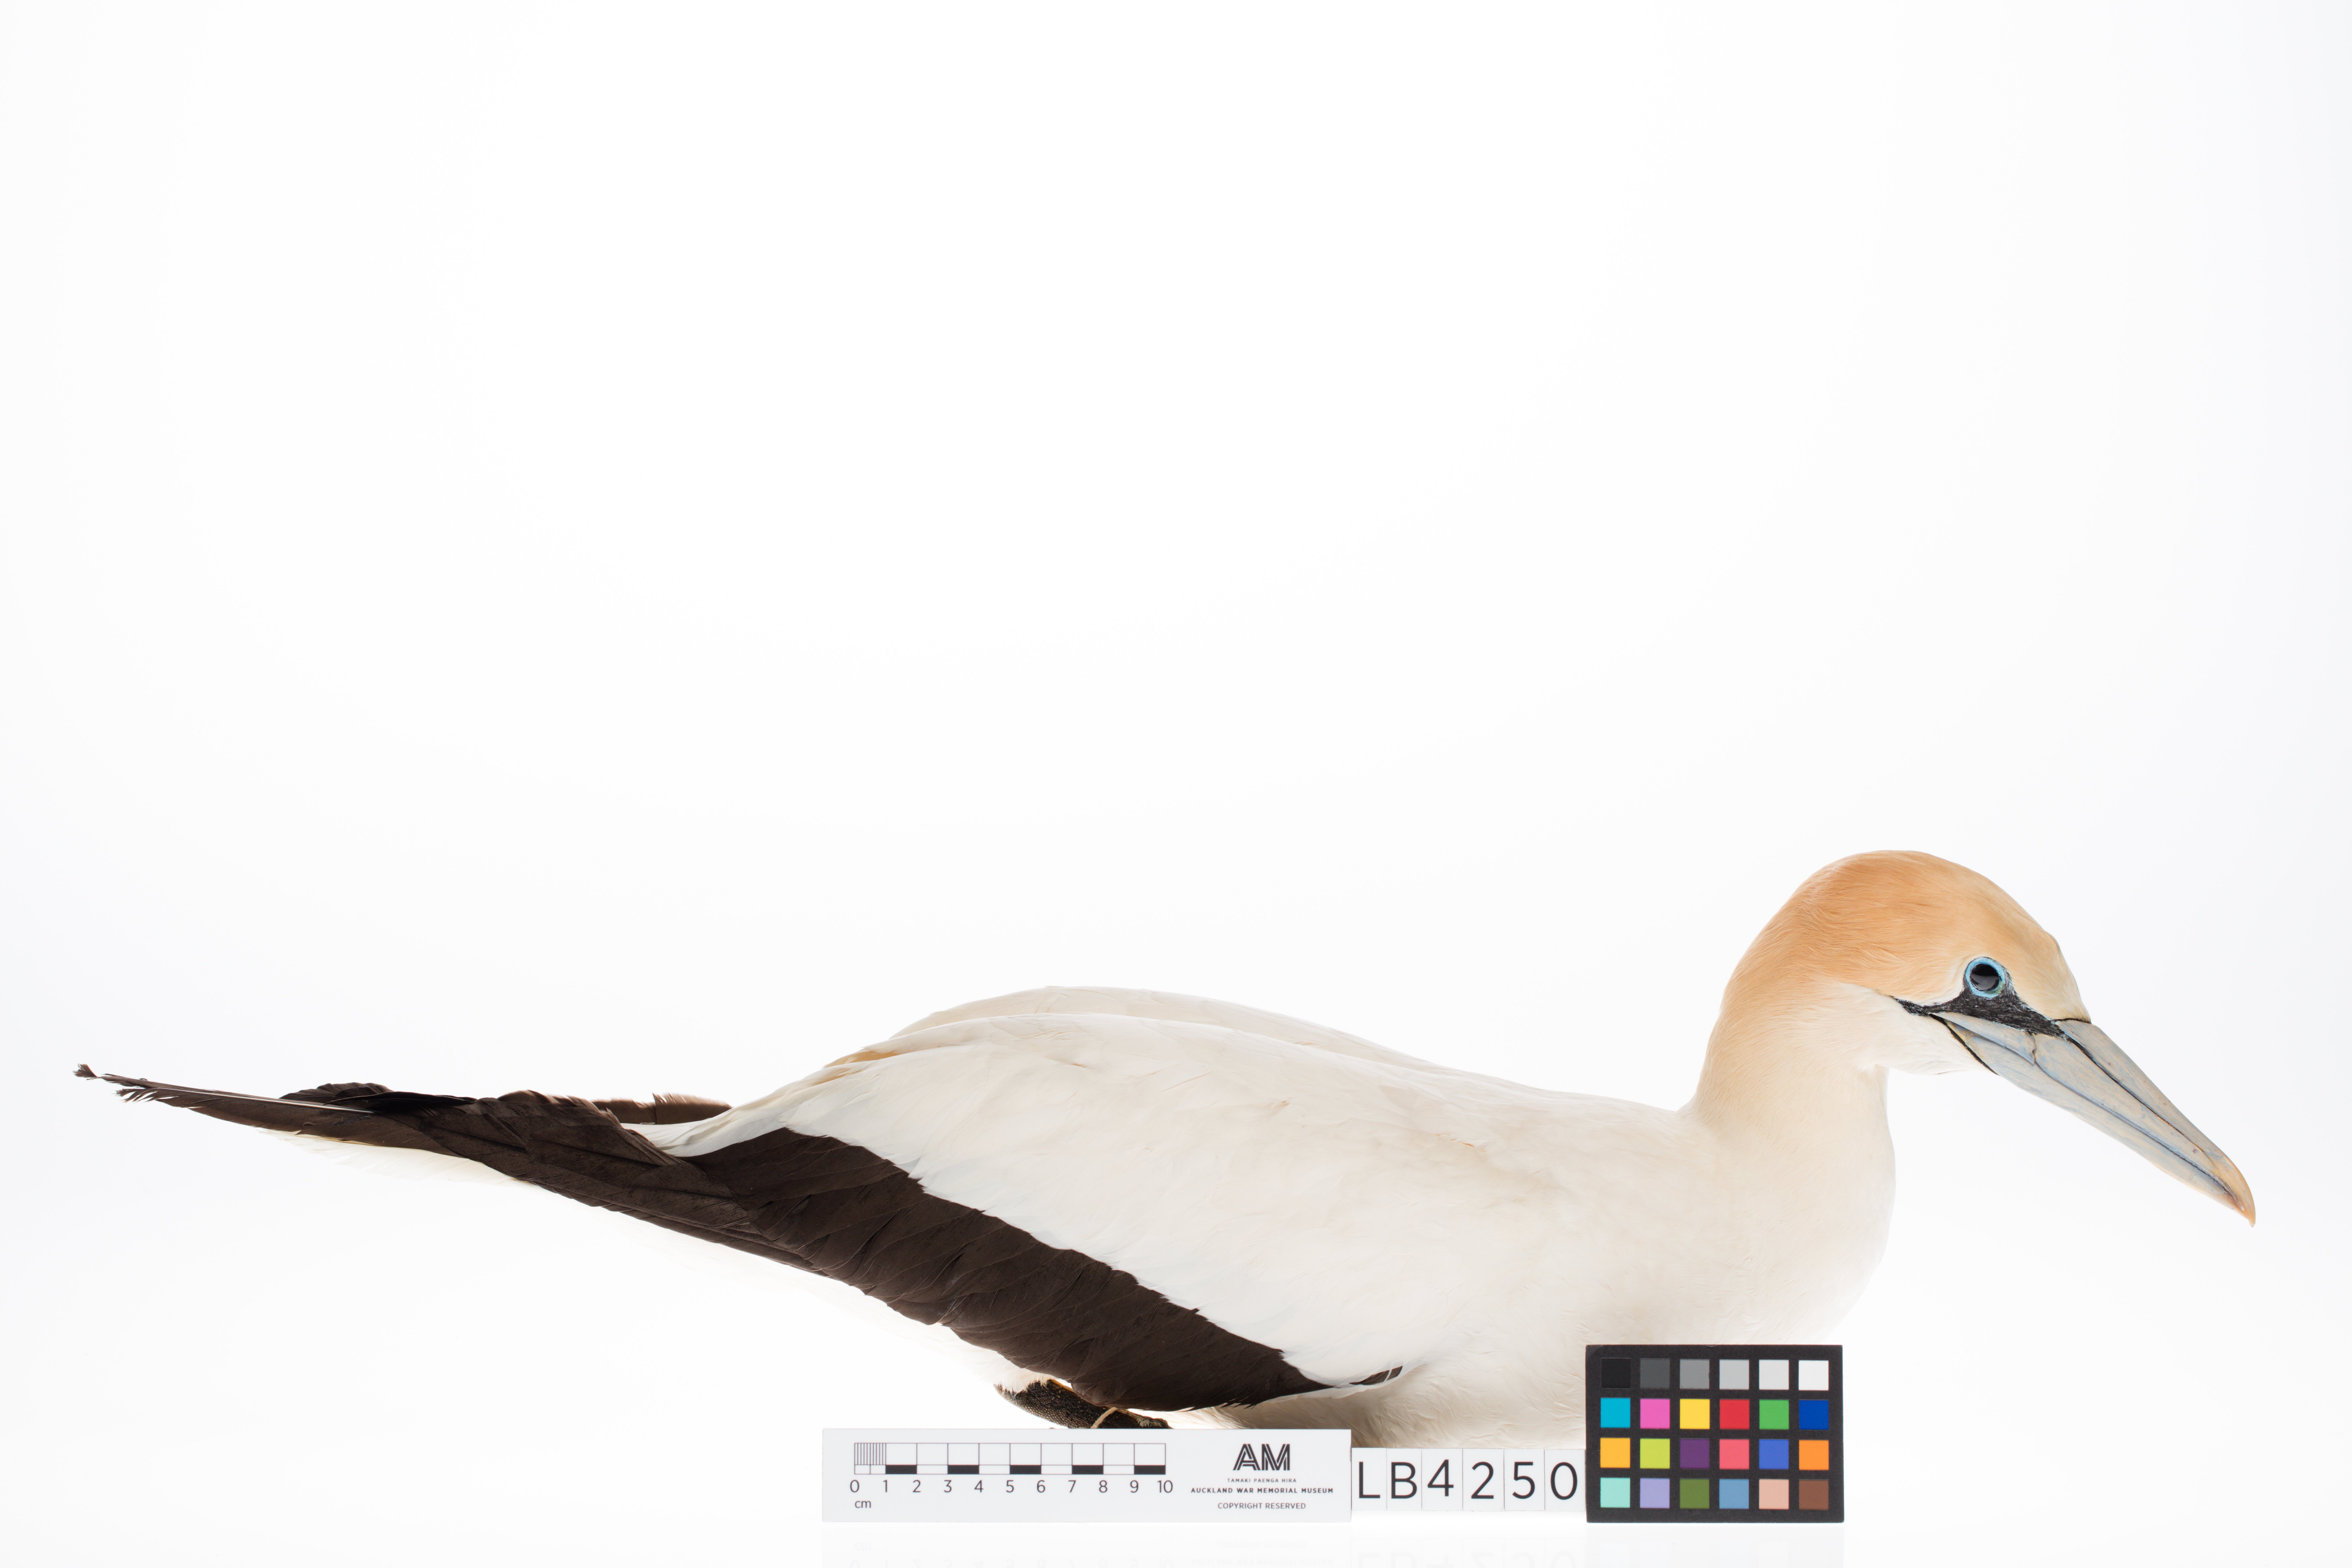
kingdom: Animalia
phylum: Chordata
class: Aves
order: Suliformes
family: Sulidae
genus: Morus
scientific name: Morus serrator
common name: Australasian gannet
